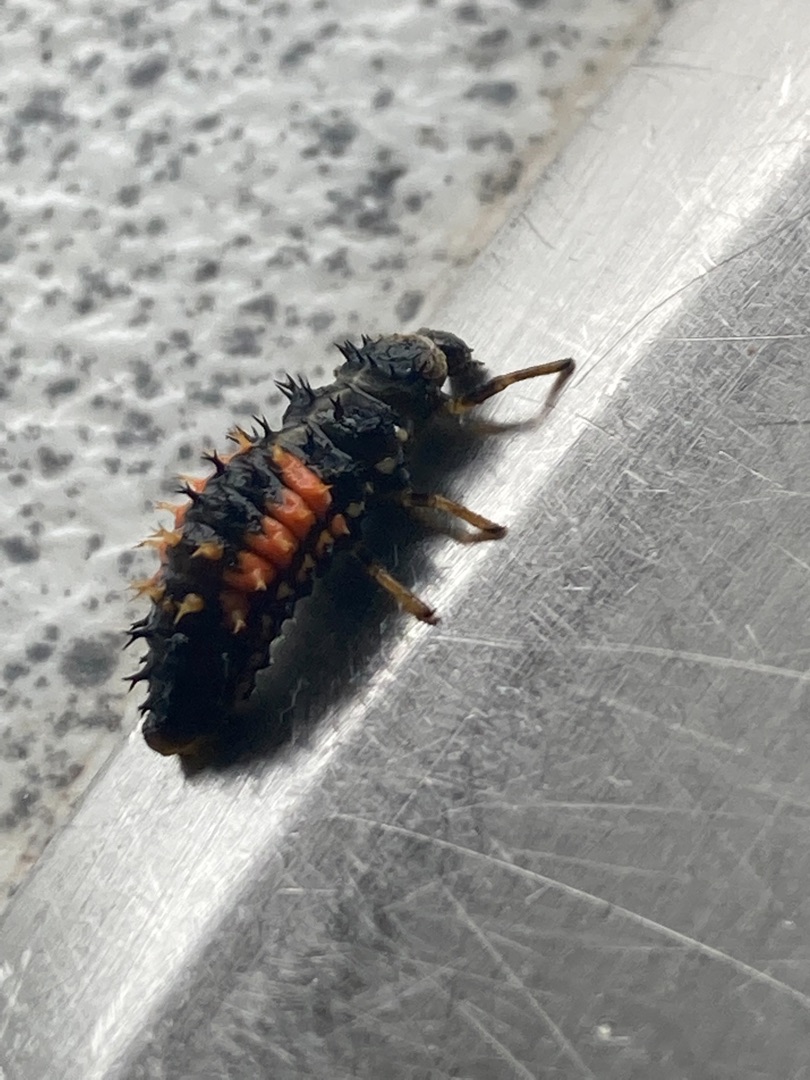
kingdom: Animalia
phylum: Arthropoda
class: Insecta
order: Coleoptera
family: Coccinellidae
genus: Harmonia
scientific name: Harmonia axyridis
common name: Harlekinmariehøne
